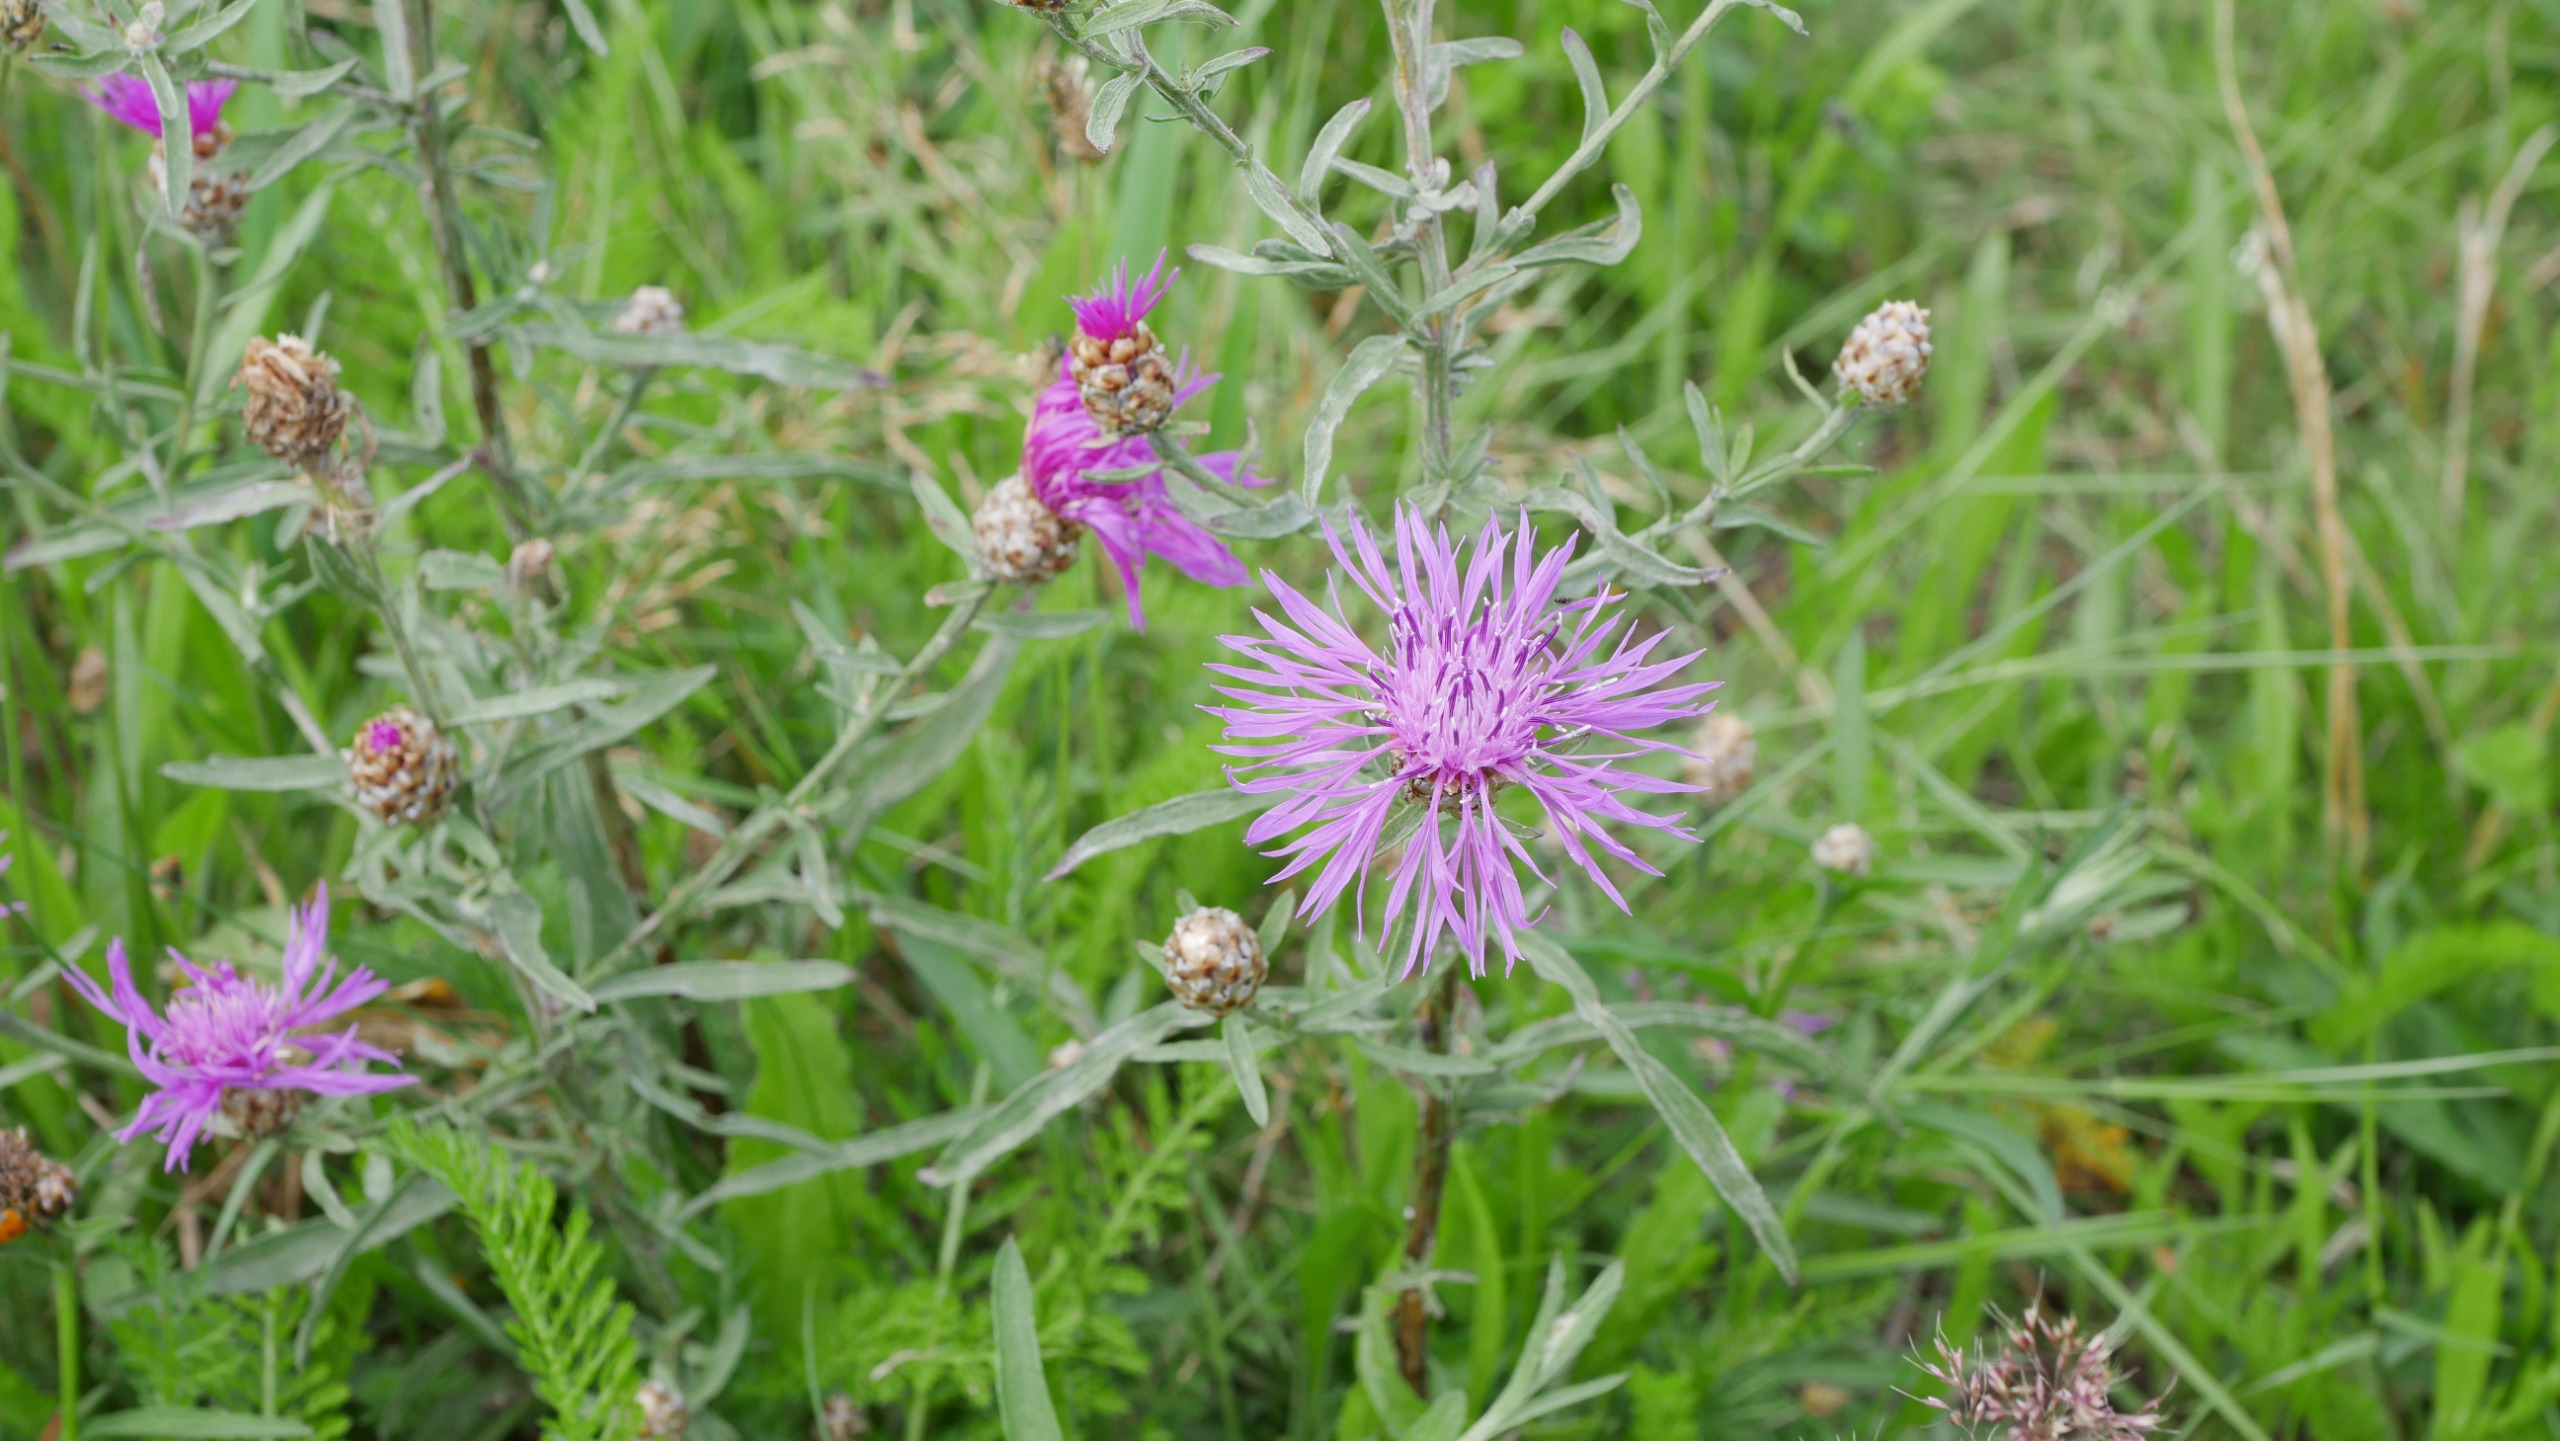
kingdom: Plantae
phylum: Tracheophyta
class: Magnoliopsida
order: Asterales
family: Asteraceae
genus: Centaurea
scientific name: Centaurea jacea
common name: Almindelig knopurt
